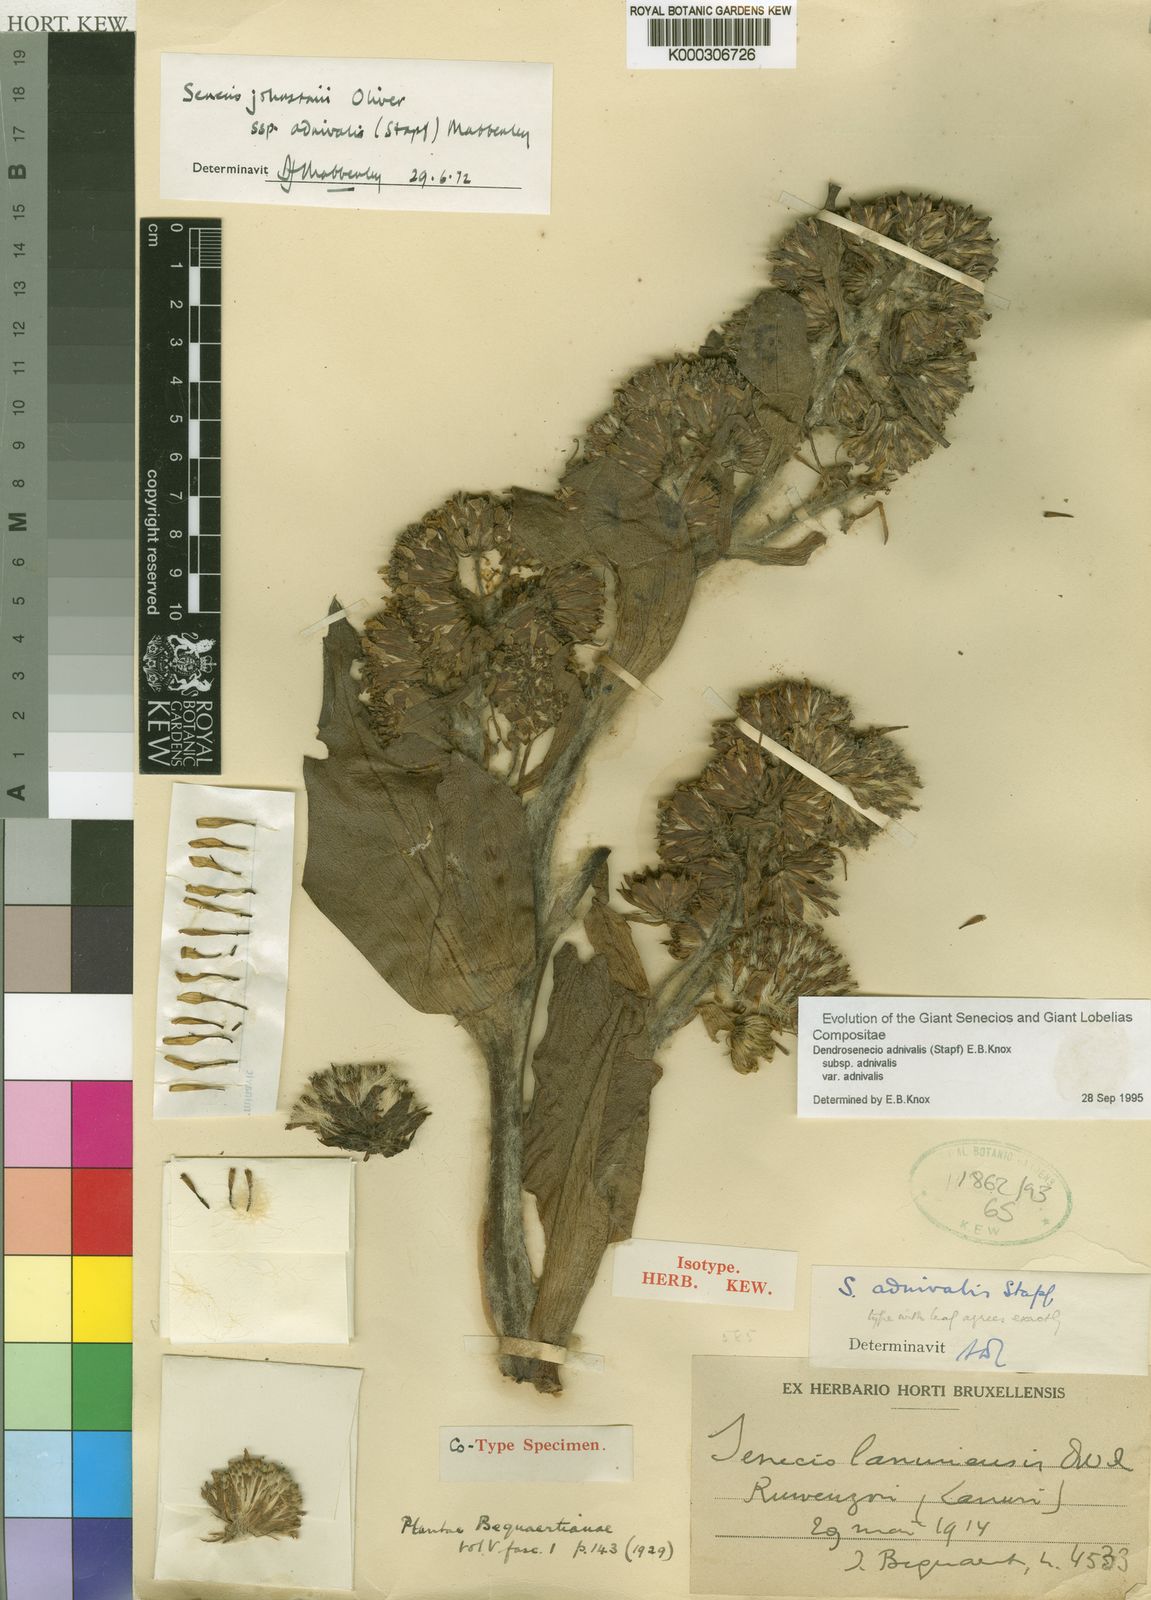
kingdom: Plantae
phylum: Tracheophyta
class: Magnoliopsida
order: Asterales
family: Asteraceae
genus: Dendrosenecio
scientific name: Dendrosenecio adnivalis
